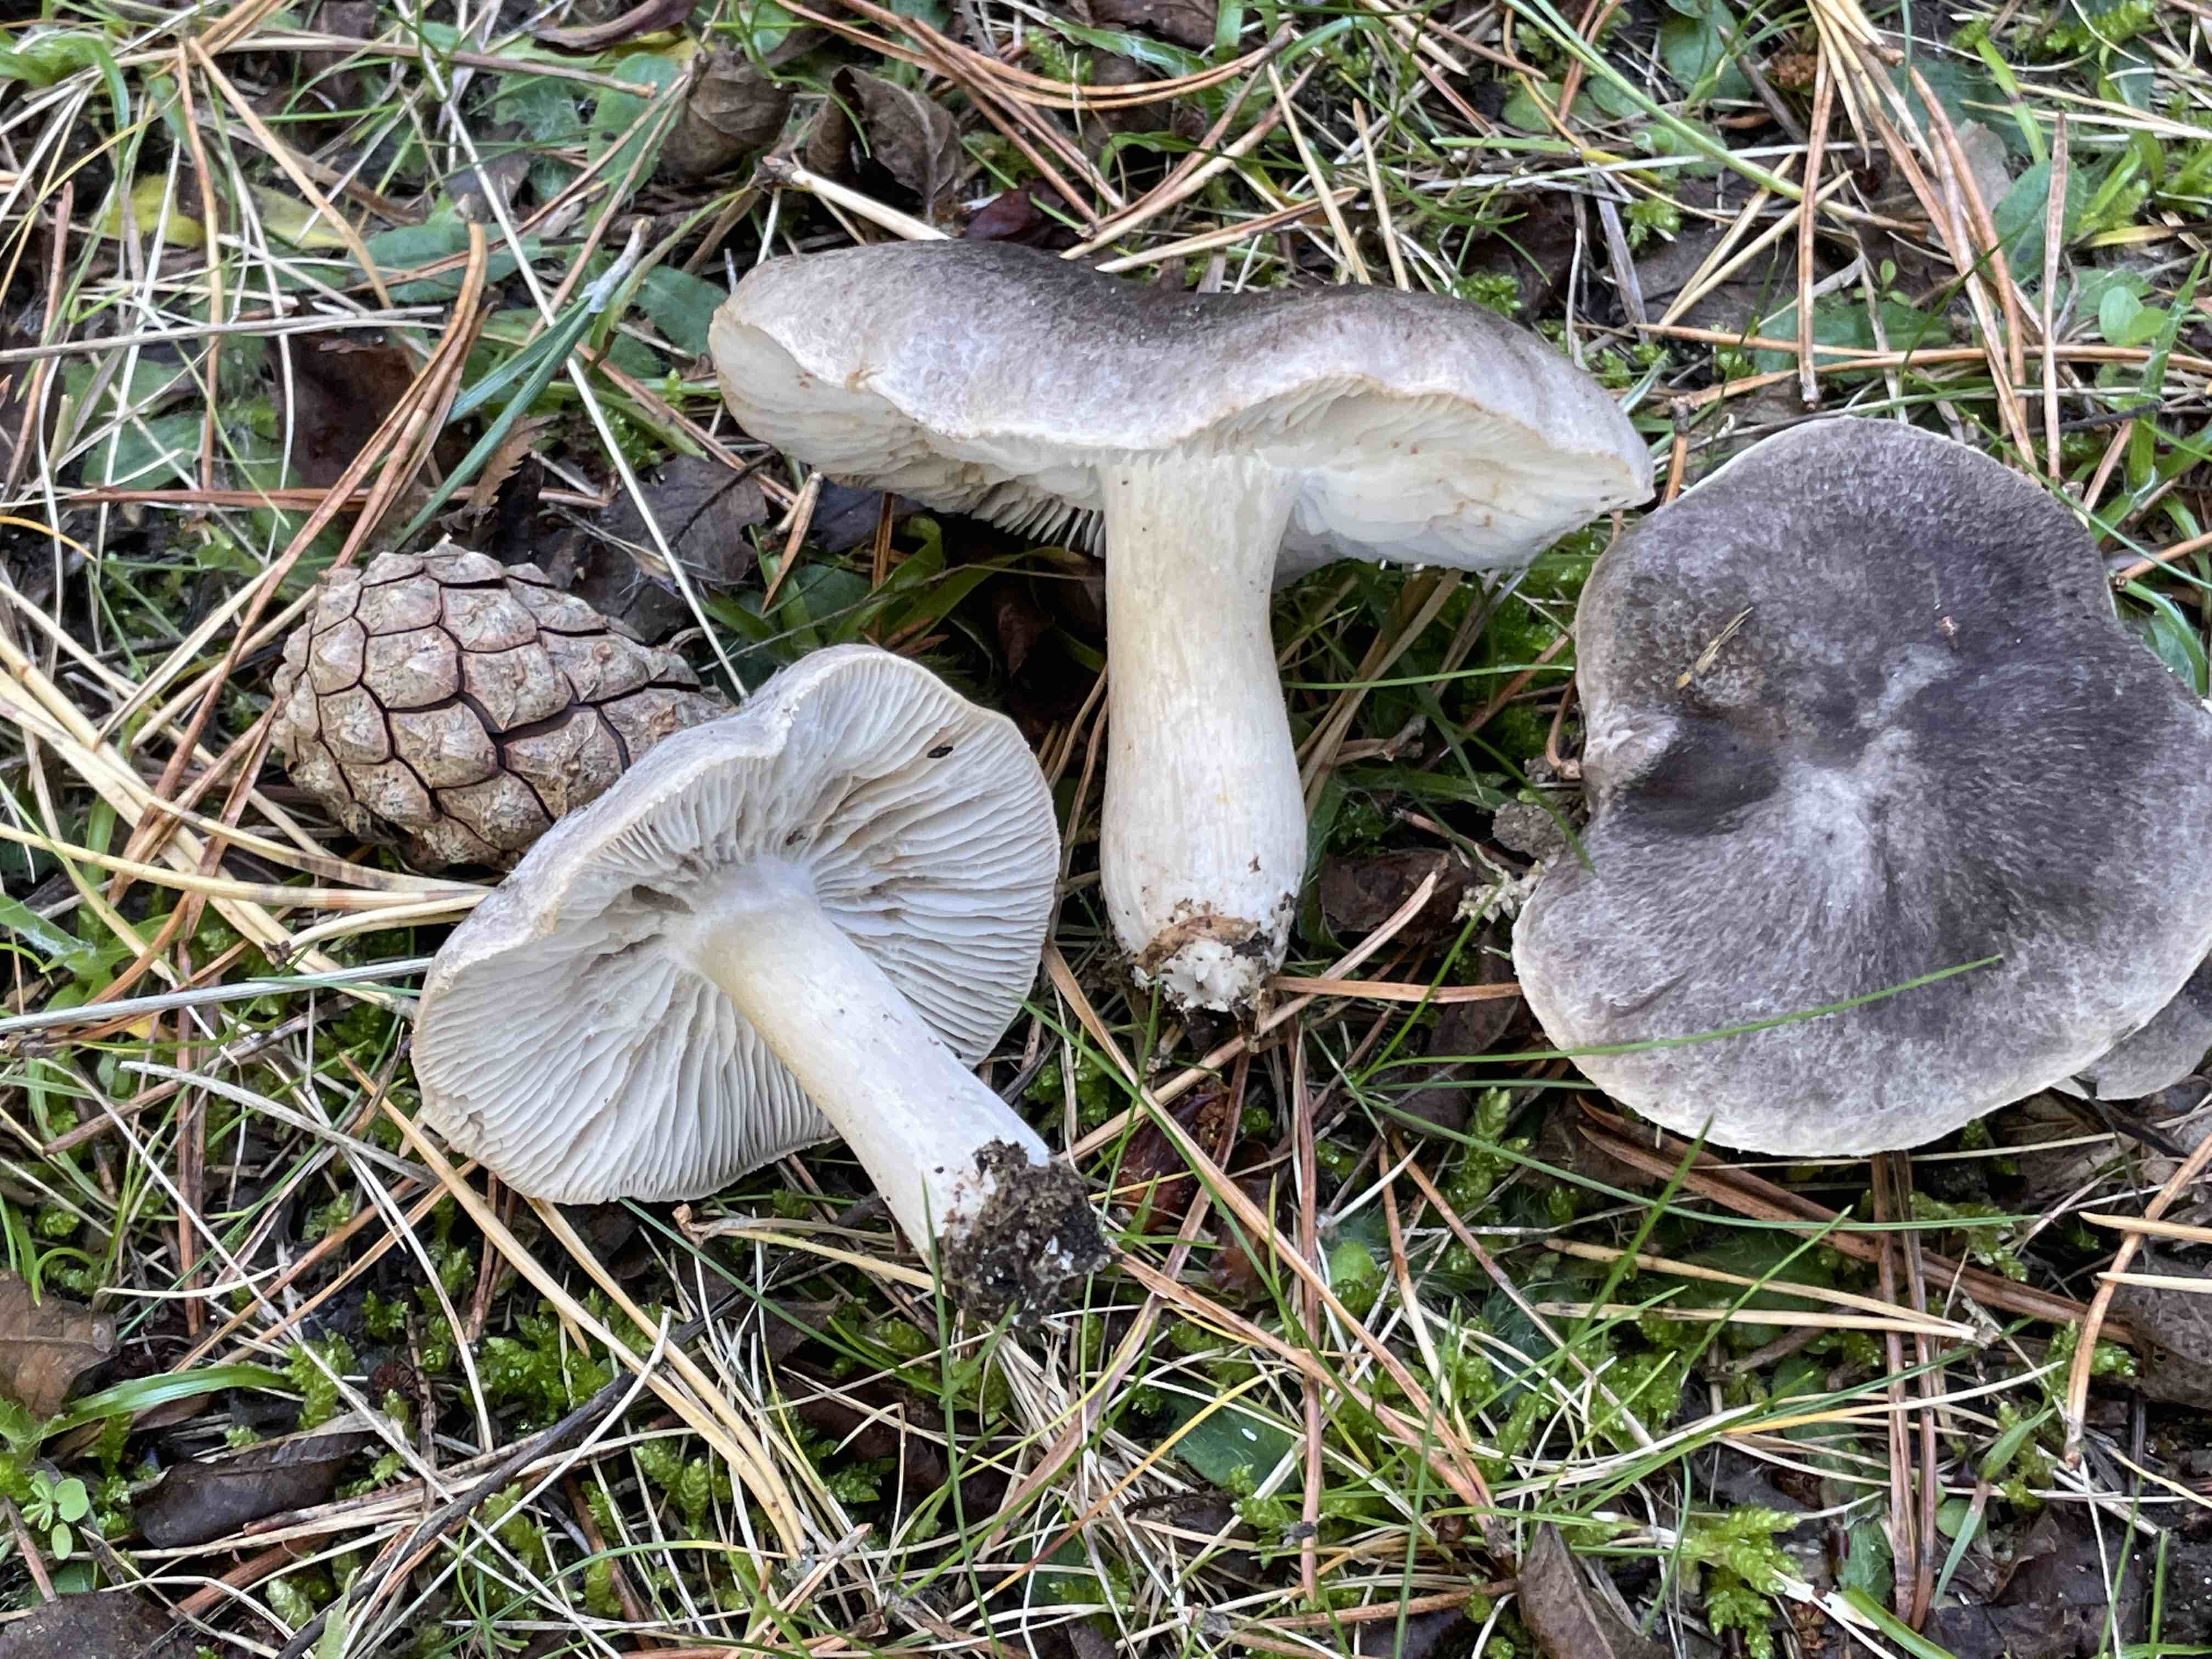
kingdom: Fungi
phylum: Basidiomycota
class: Agaricomycetes
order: Agaricales
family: Tricholomataceae
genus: Tricholoma
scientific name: Tricholoma terreum
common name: jordfarvet ridderhat
